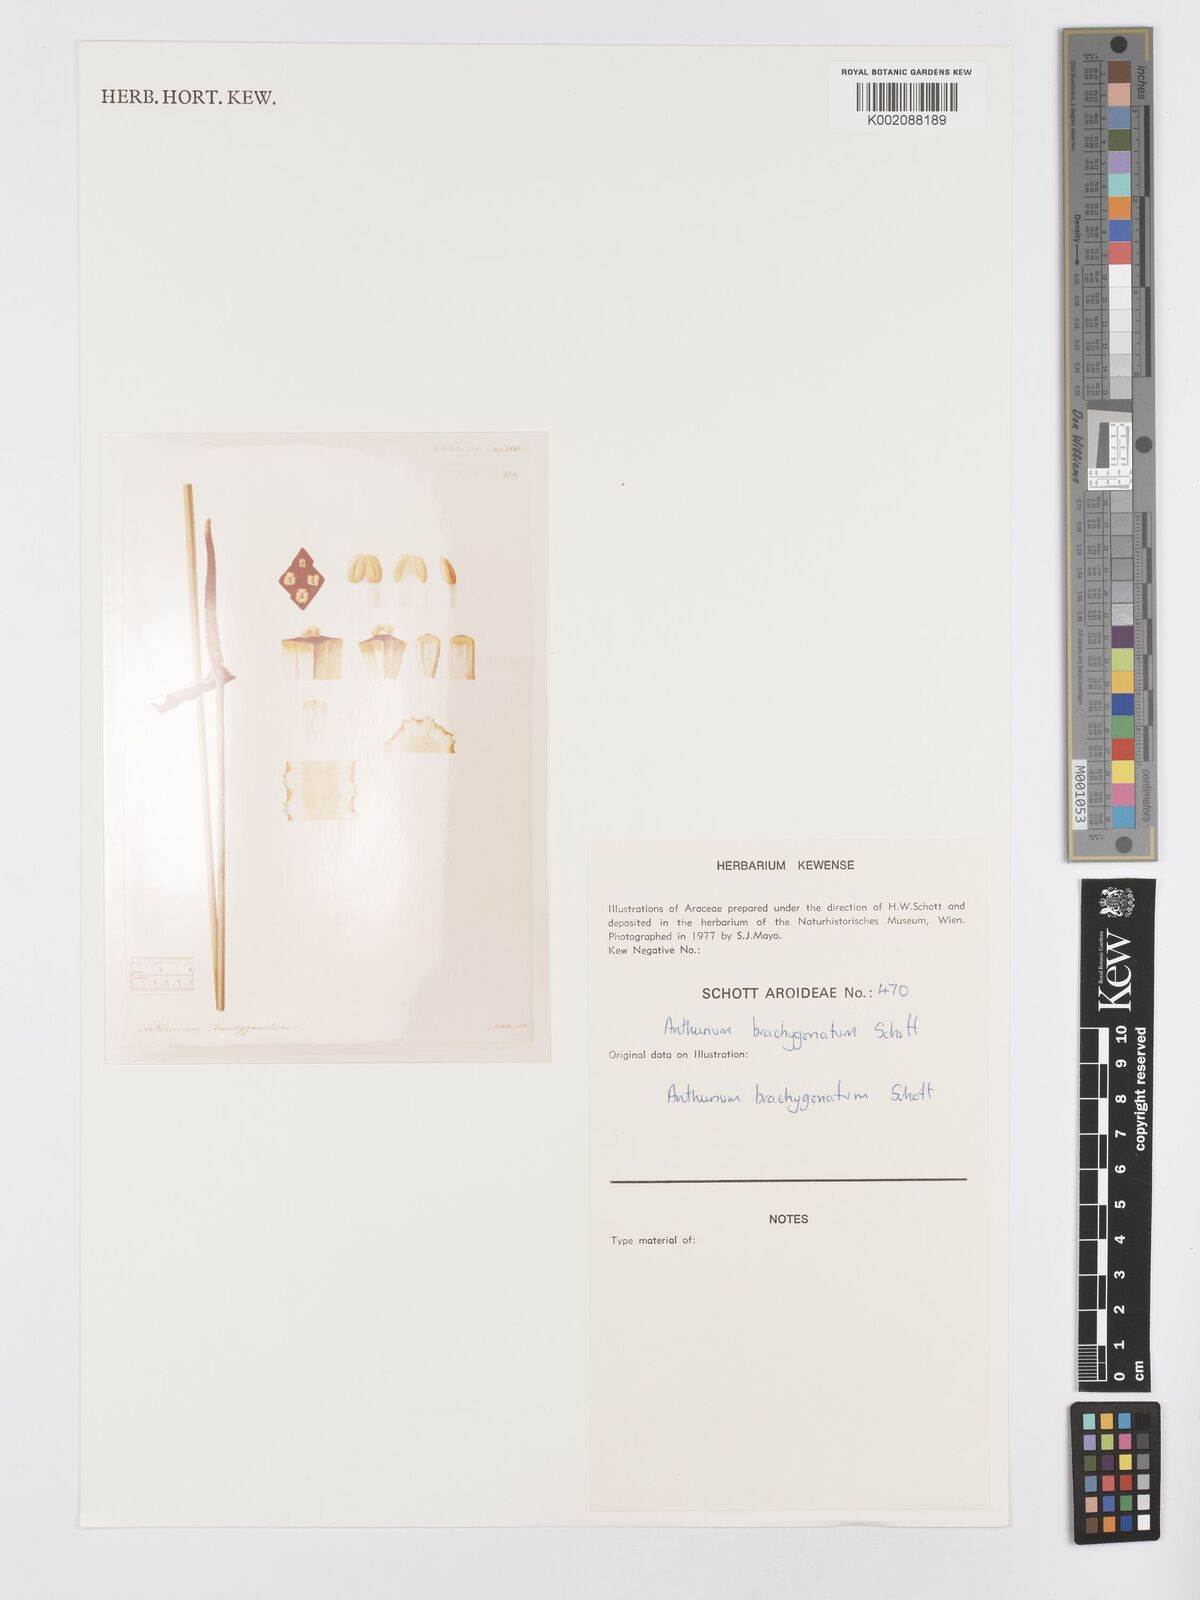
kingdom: Plantae
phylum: Tracheophyta
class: Liliopsida
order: Alismatales
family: Araceae
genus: Anthurium
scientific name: Anthurium schlechtendalii
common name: Laceleaf
